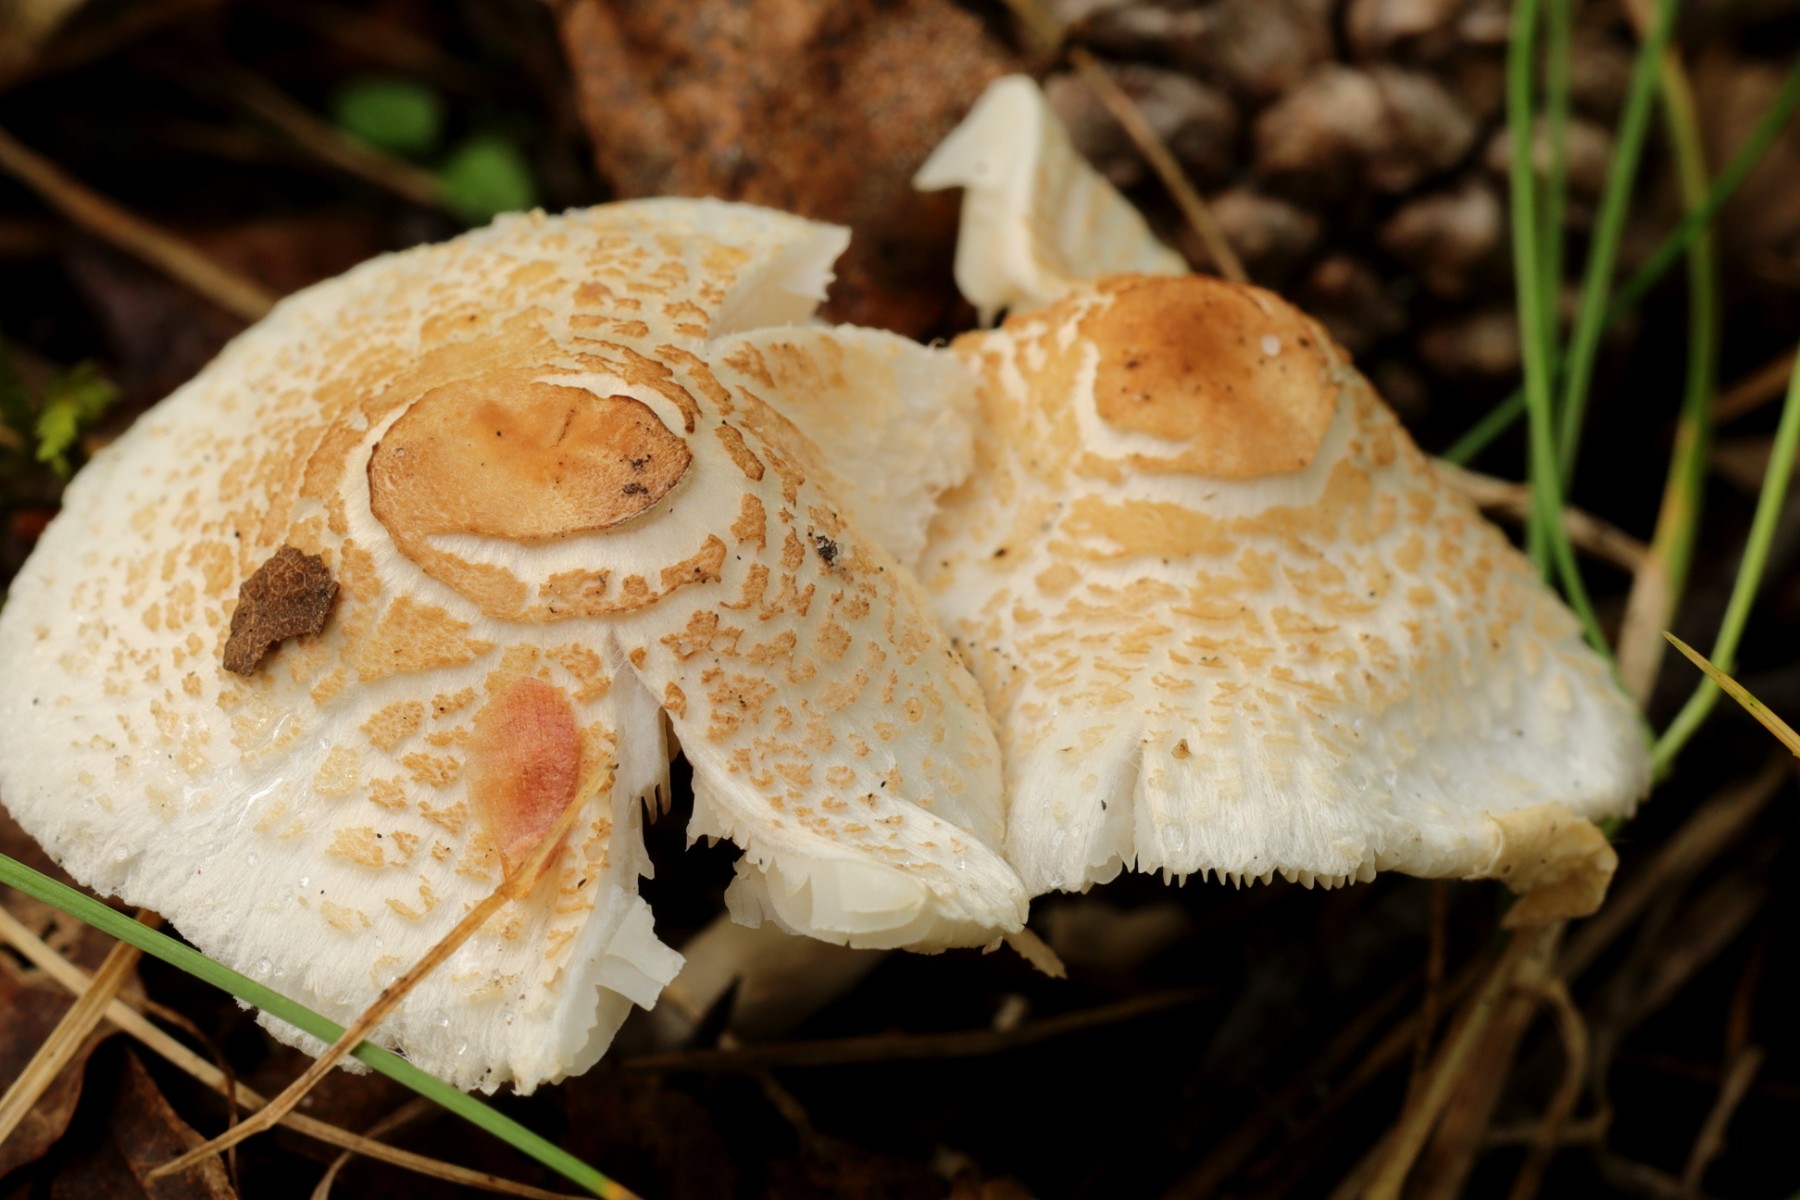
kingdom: Fungi
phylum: Basidiomycota
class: Agaricomycetes
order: Agaricales
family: Agaricaceae
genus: Lepiota
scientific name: Lepiota cristata
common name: stinkende parasolhat
